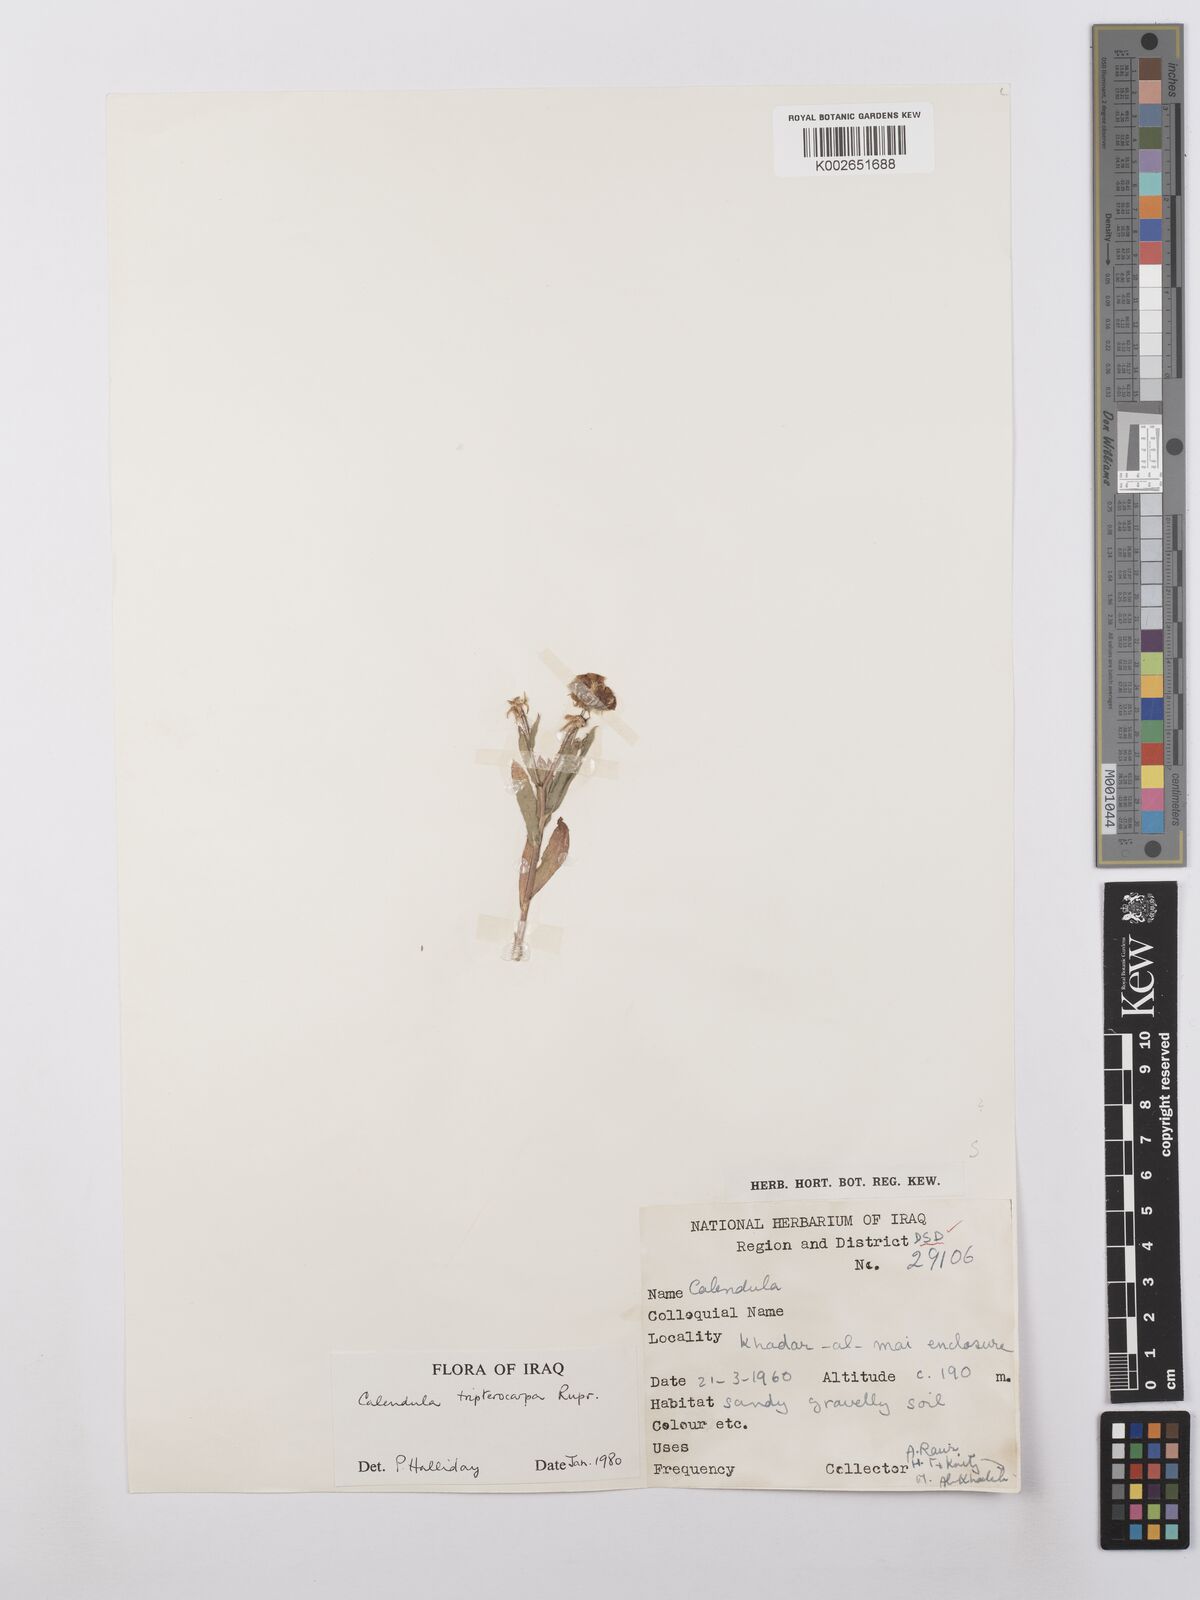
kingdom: Plantae
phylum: Tracheophyta
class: Magnoliopsida
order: Asterales
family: Asteraceae
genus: Calendula
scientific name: Calendula tripterocarpa
